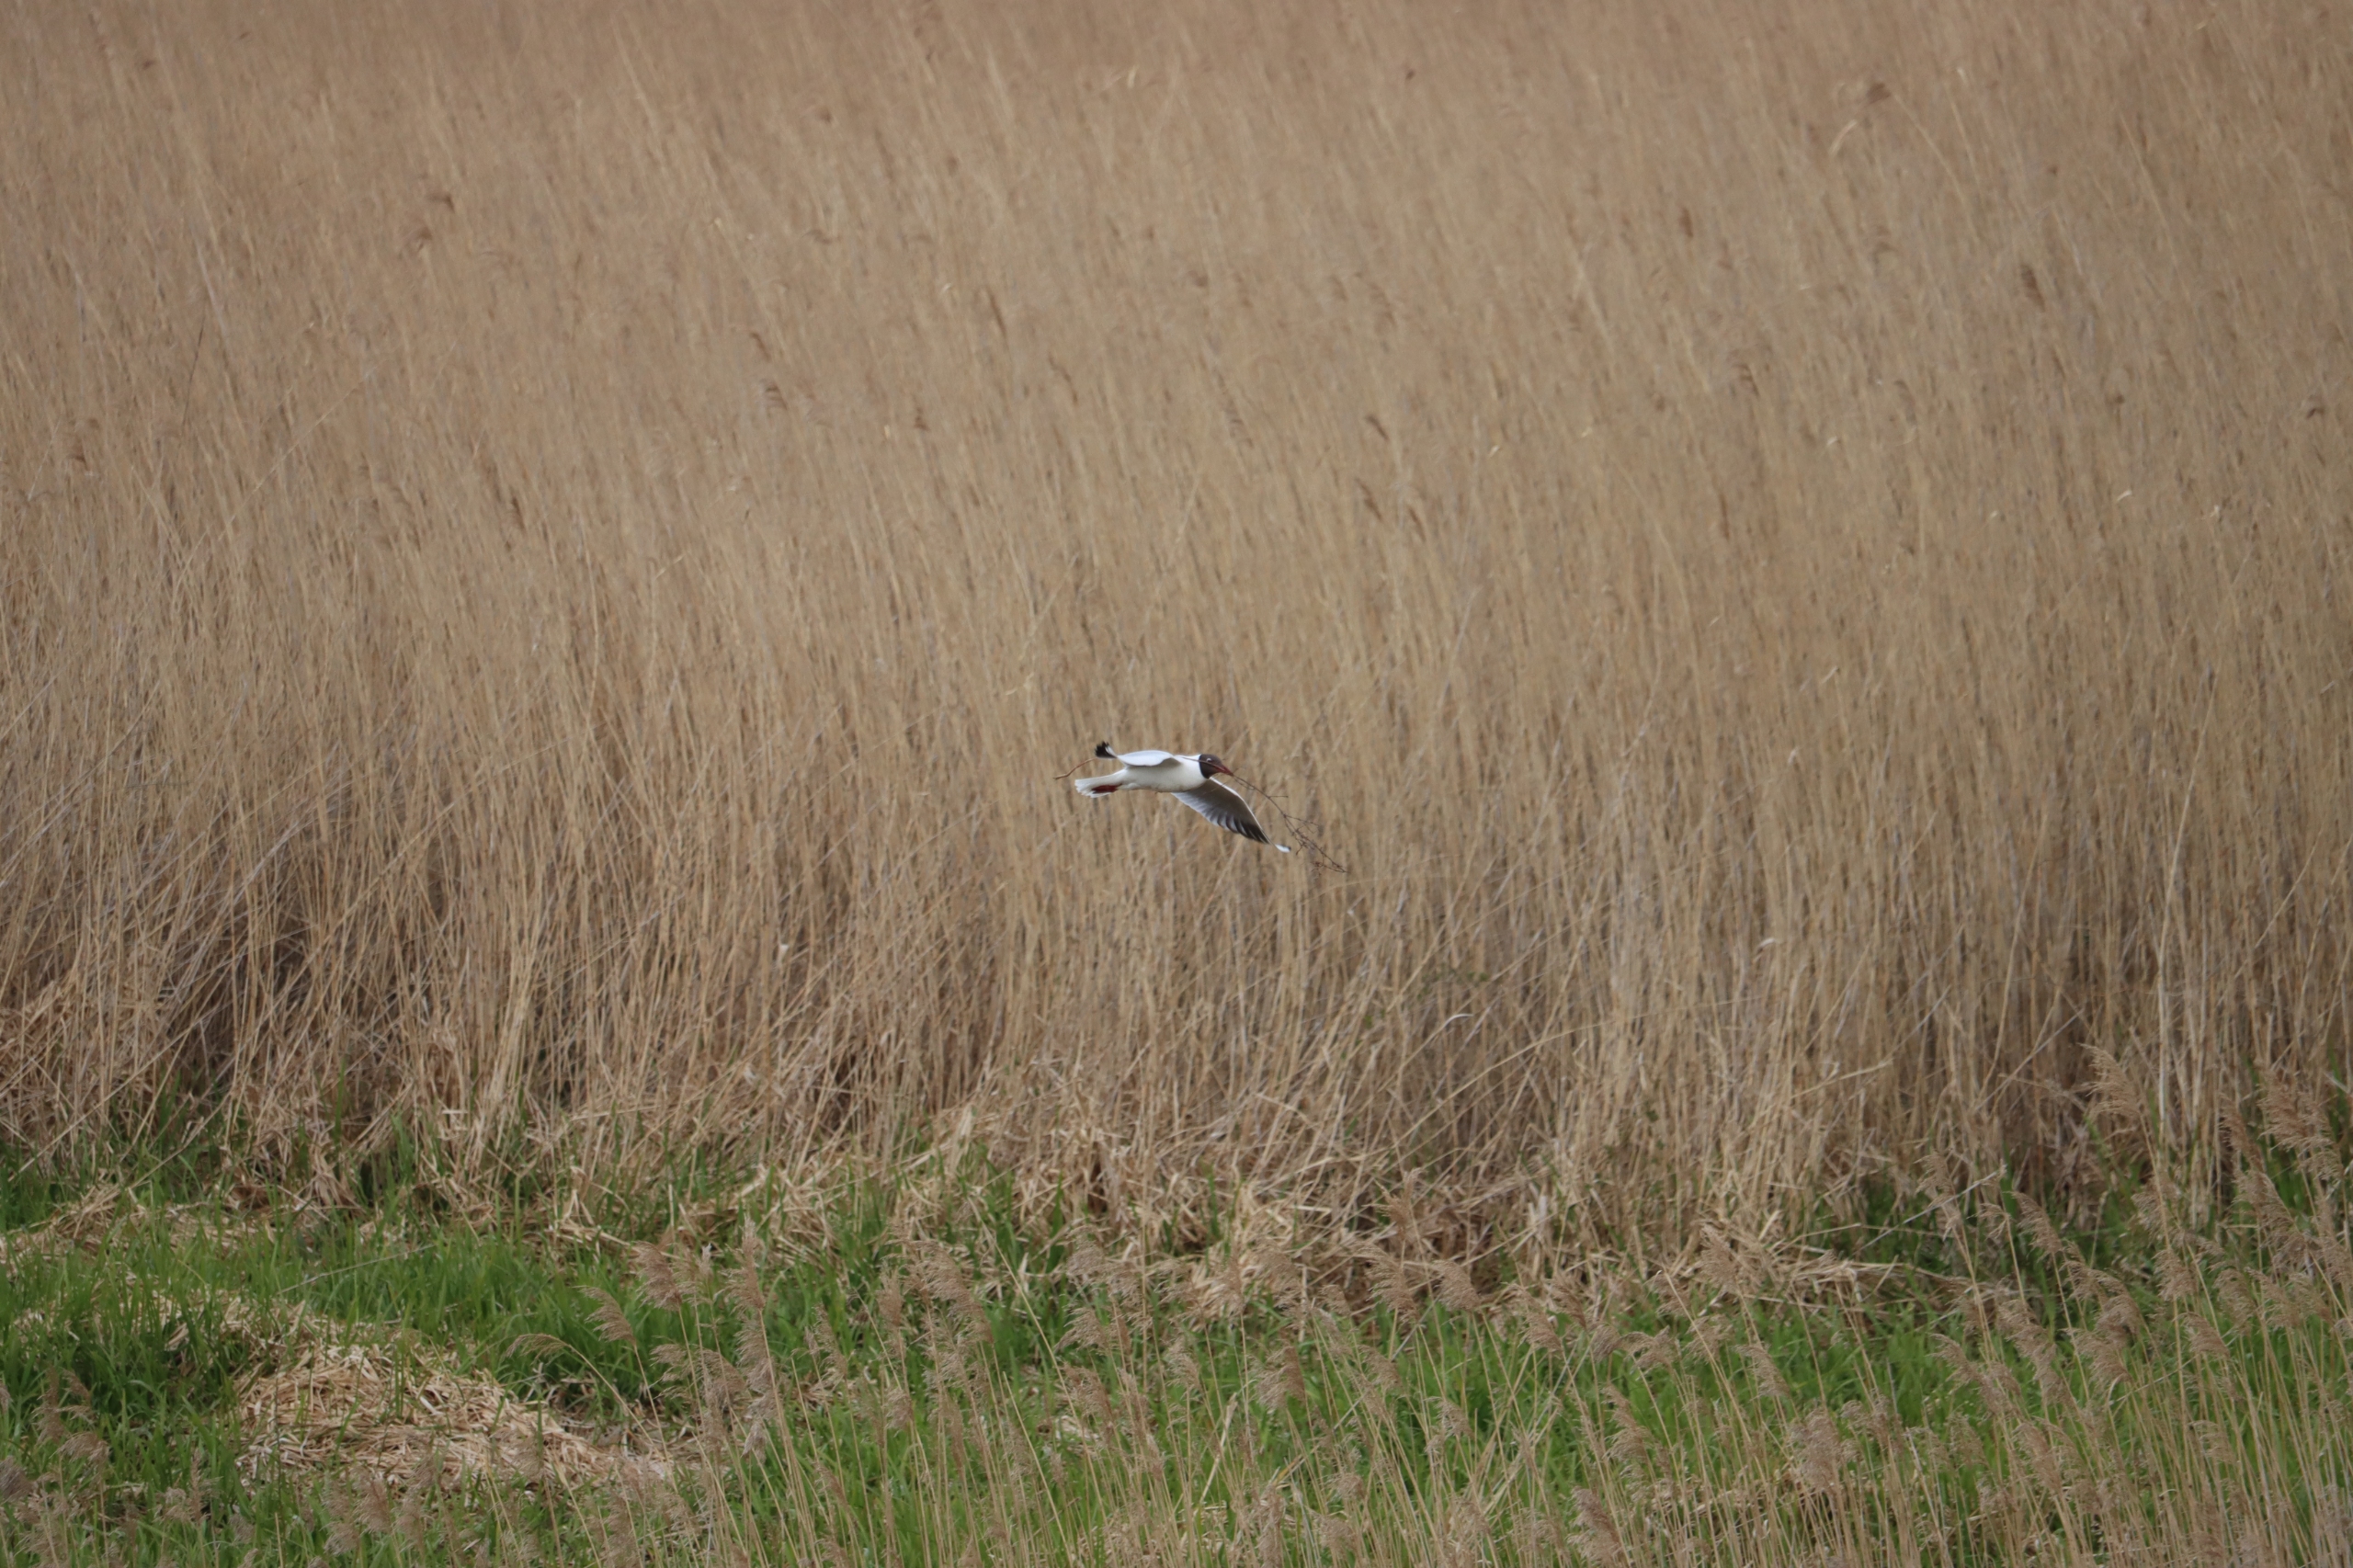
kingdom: Animalia
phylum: Chordata
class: Aves
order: Charadriiformes
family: Laridae
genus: Chroicocephalus
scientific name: Chroicocephalus ridibundus
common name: Hættemåge
